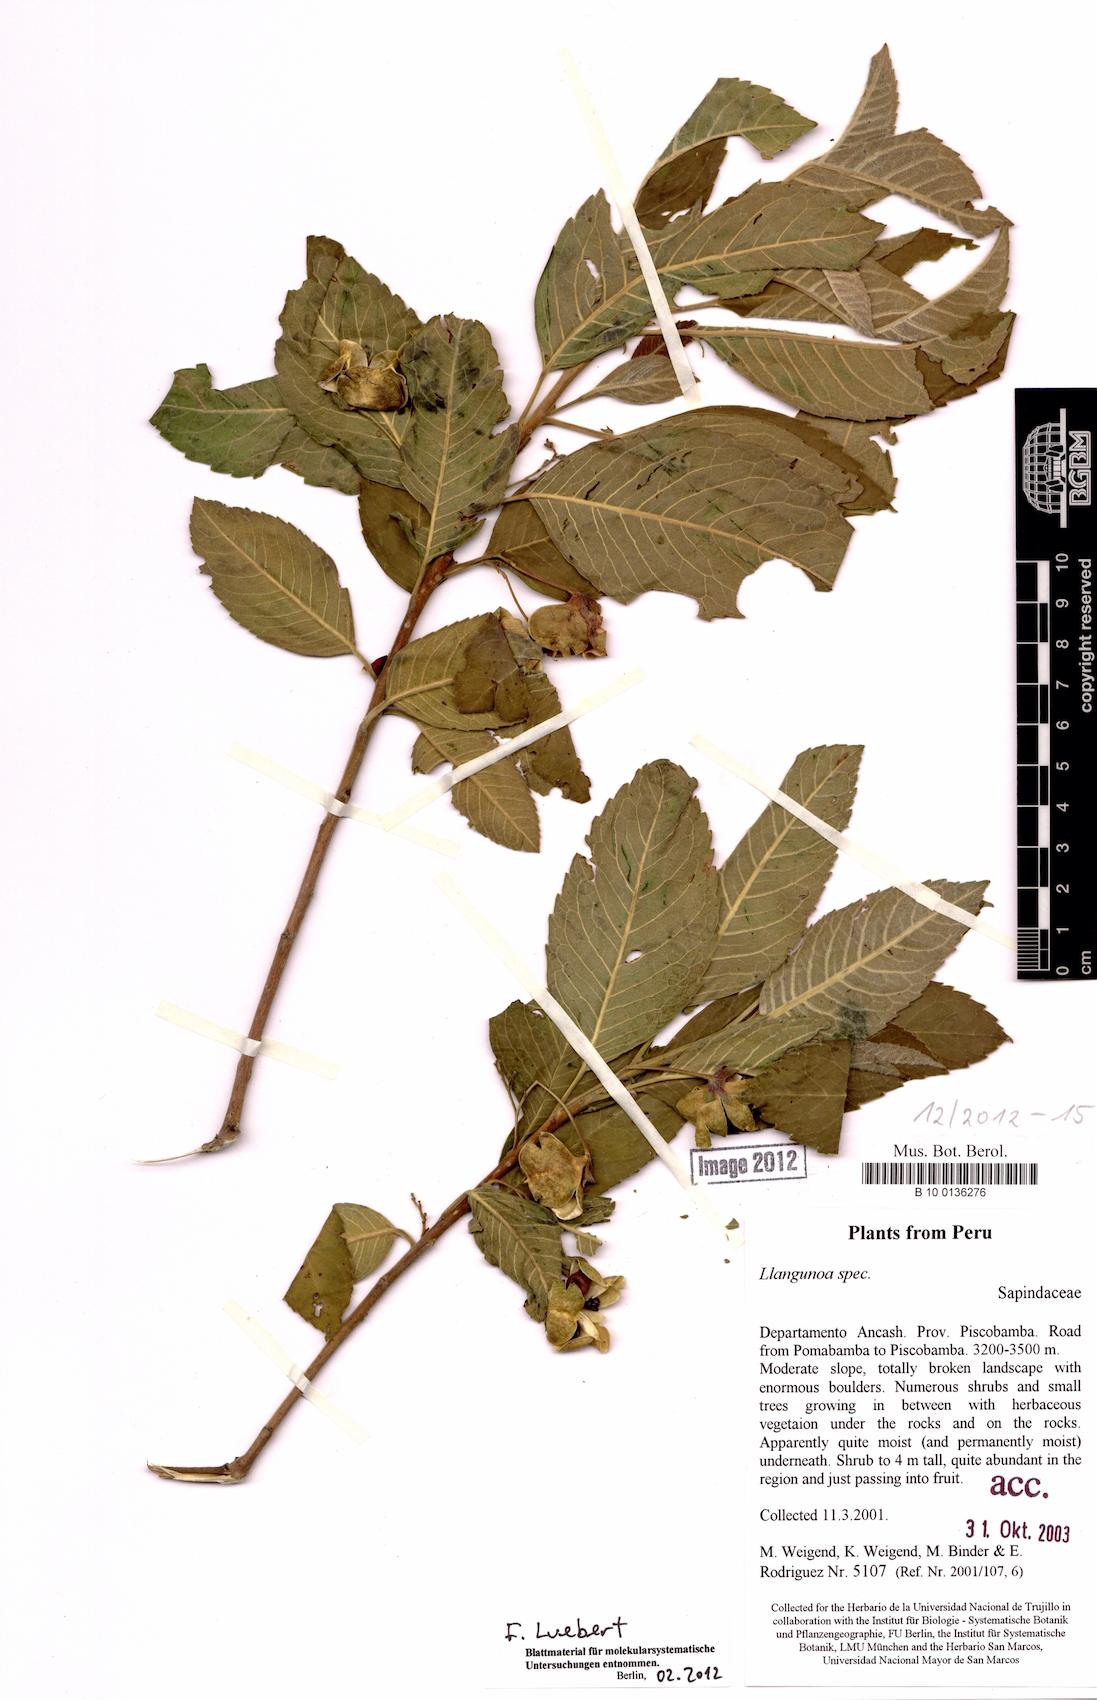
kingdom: Plantae
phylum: Tracheophyta
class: Magnoliopsida
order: Sapindales
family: Sapindaceae
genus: Llagunoa
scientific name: Llagunoa
